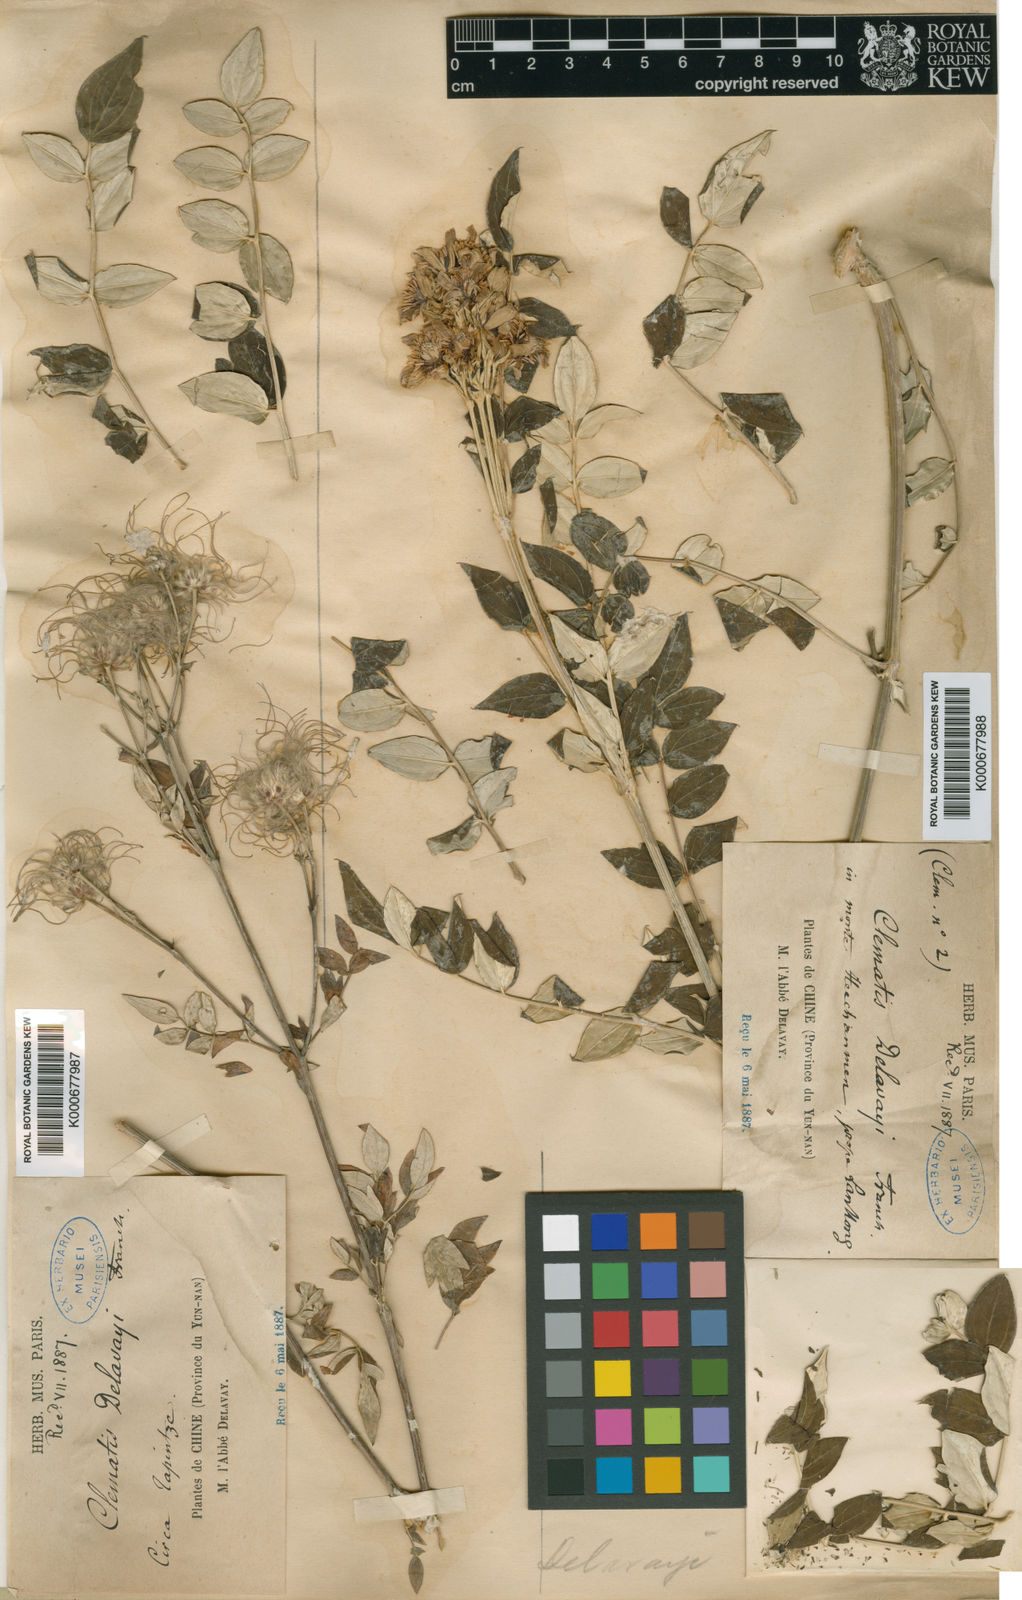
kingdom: Plantae
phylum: Tracheophyta
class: Magnoliopsida
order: Ranunculales
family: Ranunculaceae
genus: Clematis
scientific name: Clematis delavayi
